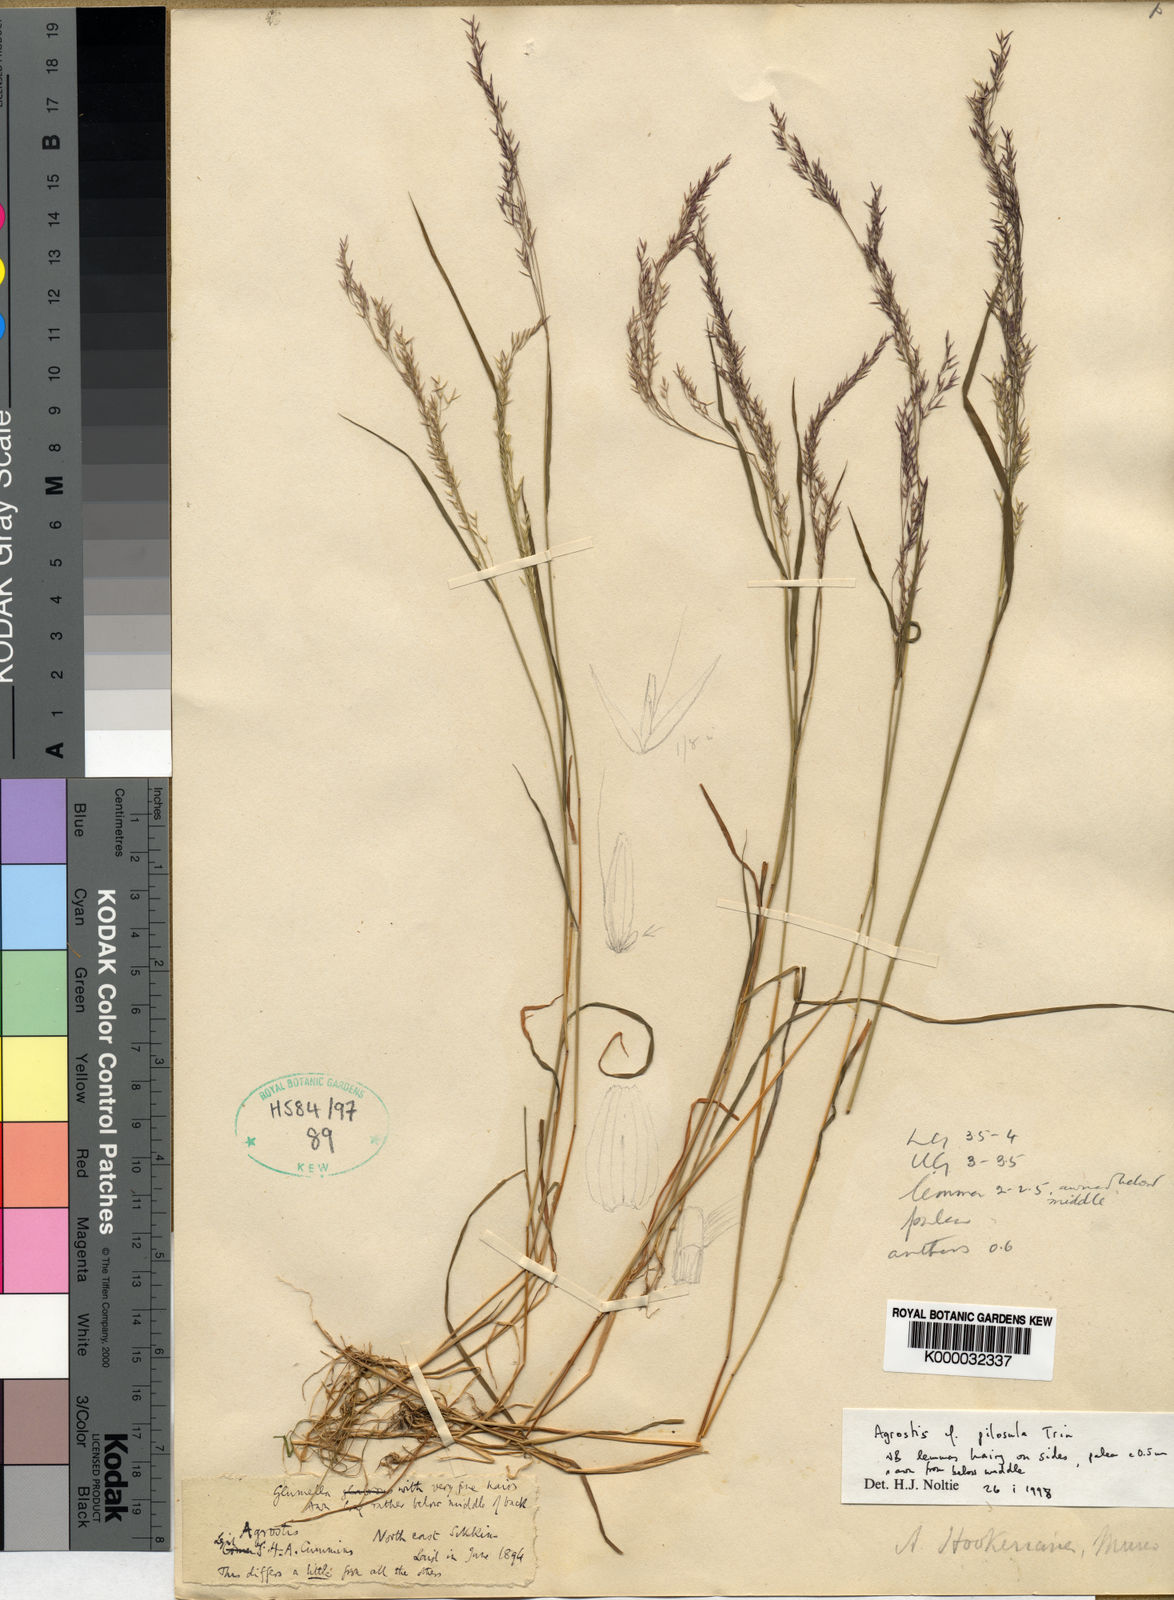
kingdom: Plantae
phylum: Tracheophyta
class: Liliopsida
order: Poales
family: Poaceae
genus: Agrostis
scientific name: Agrostis
